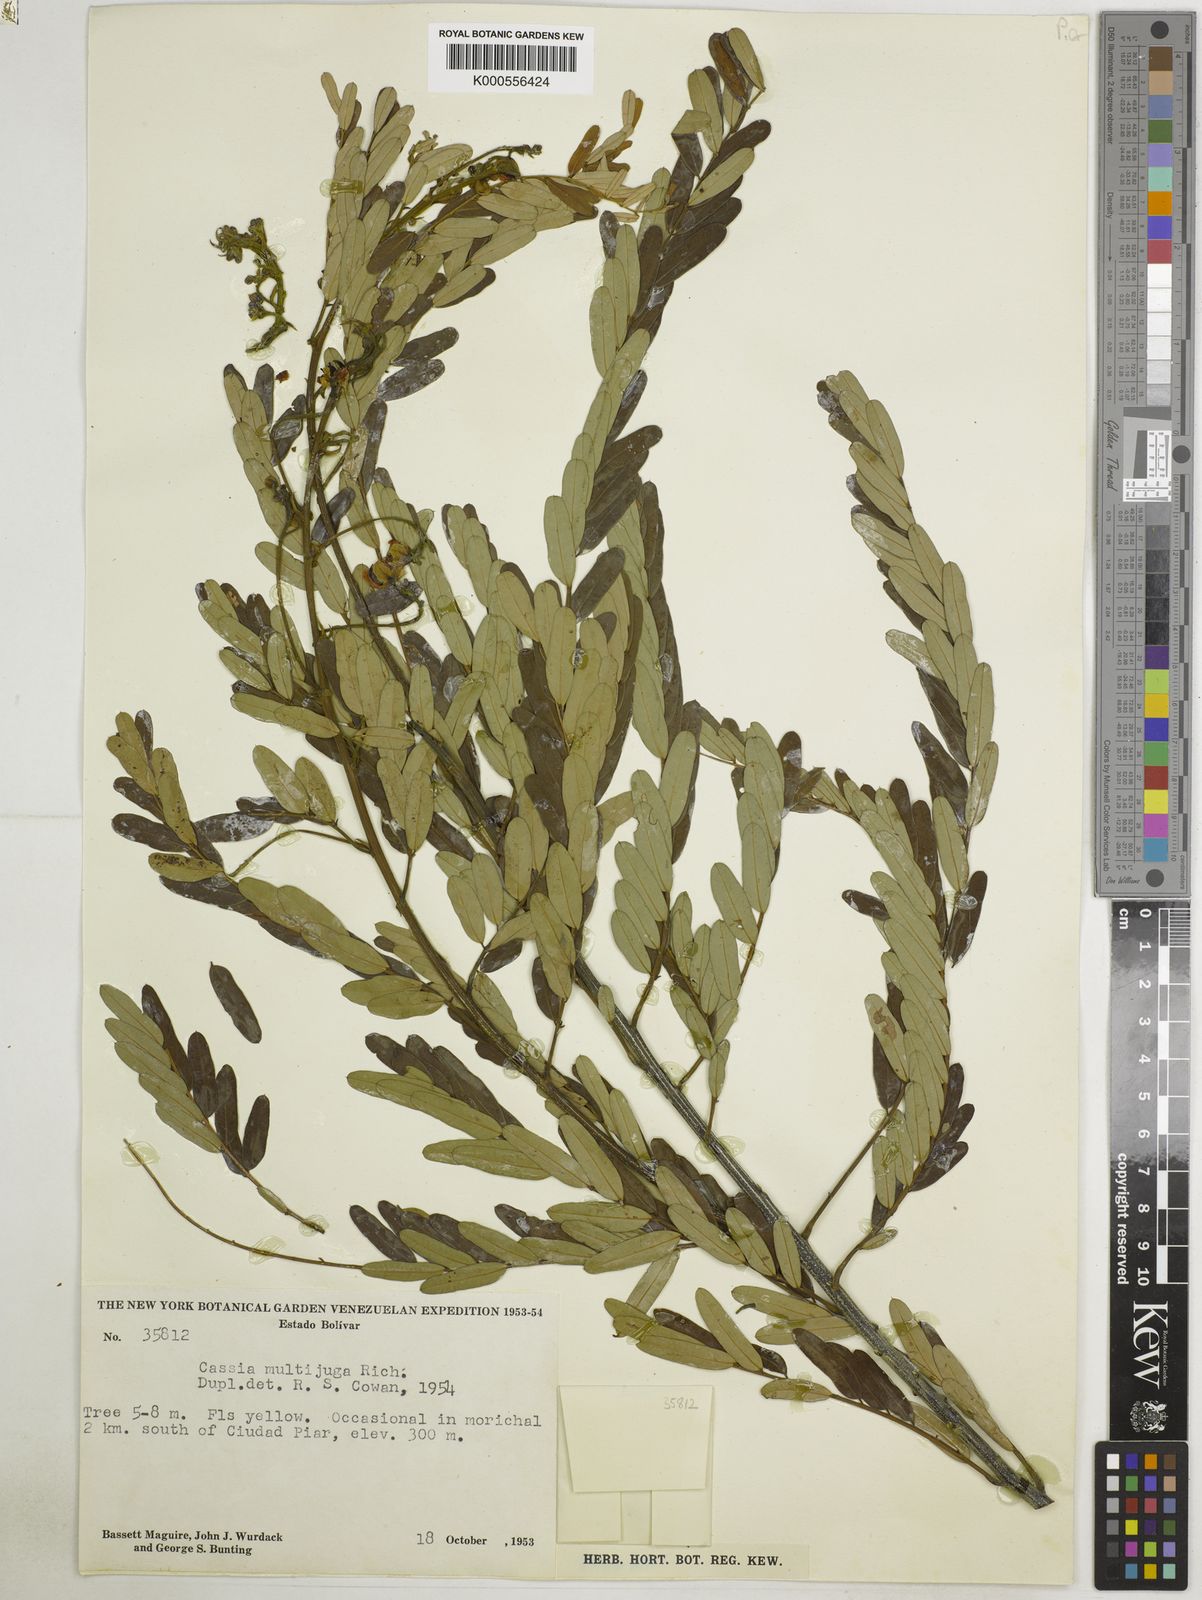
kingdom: Plantae
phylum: Tracheophyta
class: Magnoliopsida
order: Fabales
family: Fabaceae
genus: Senna
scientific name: Senna multijuga
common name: False sicklepod
